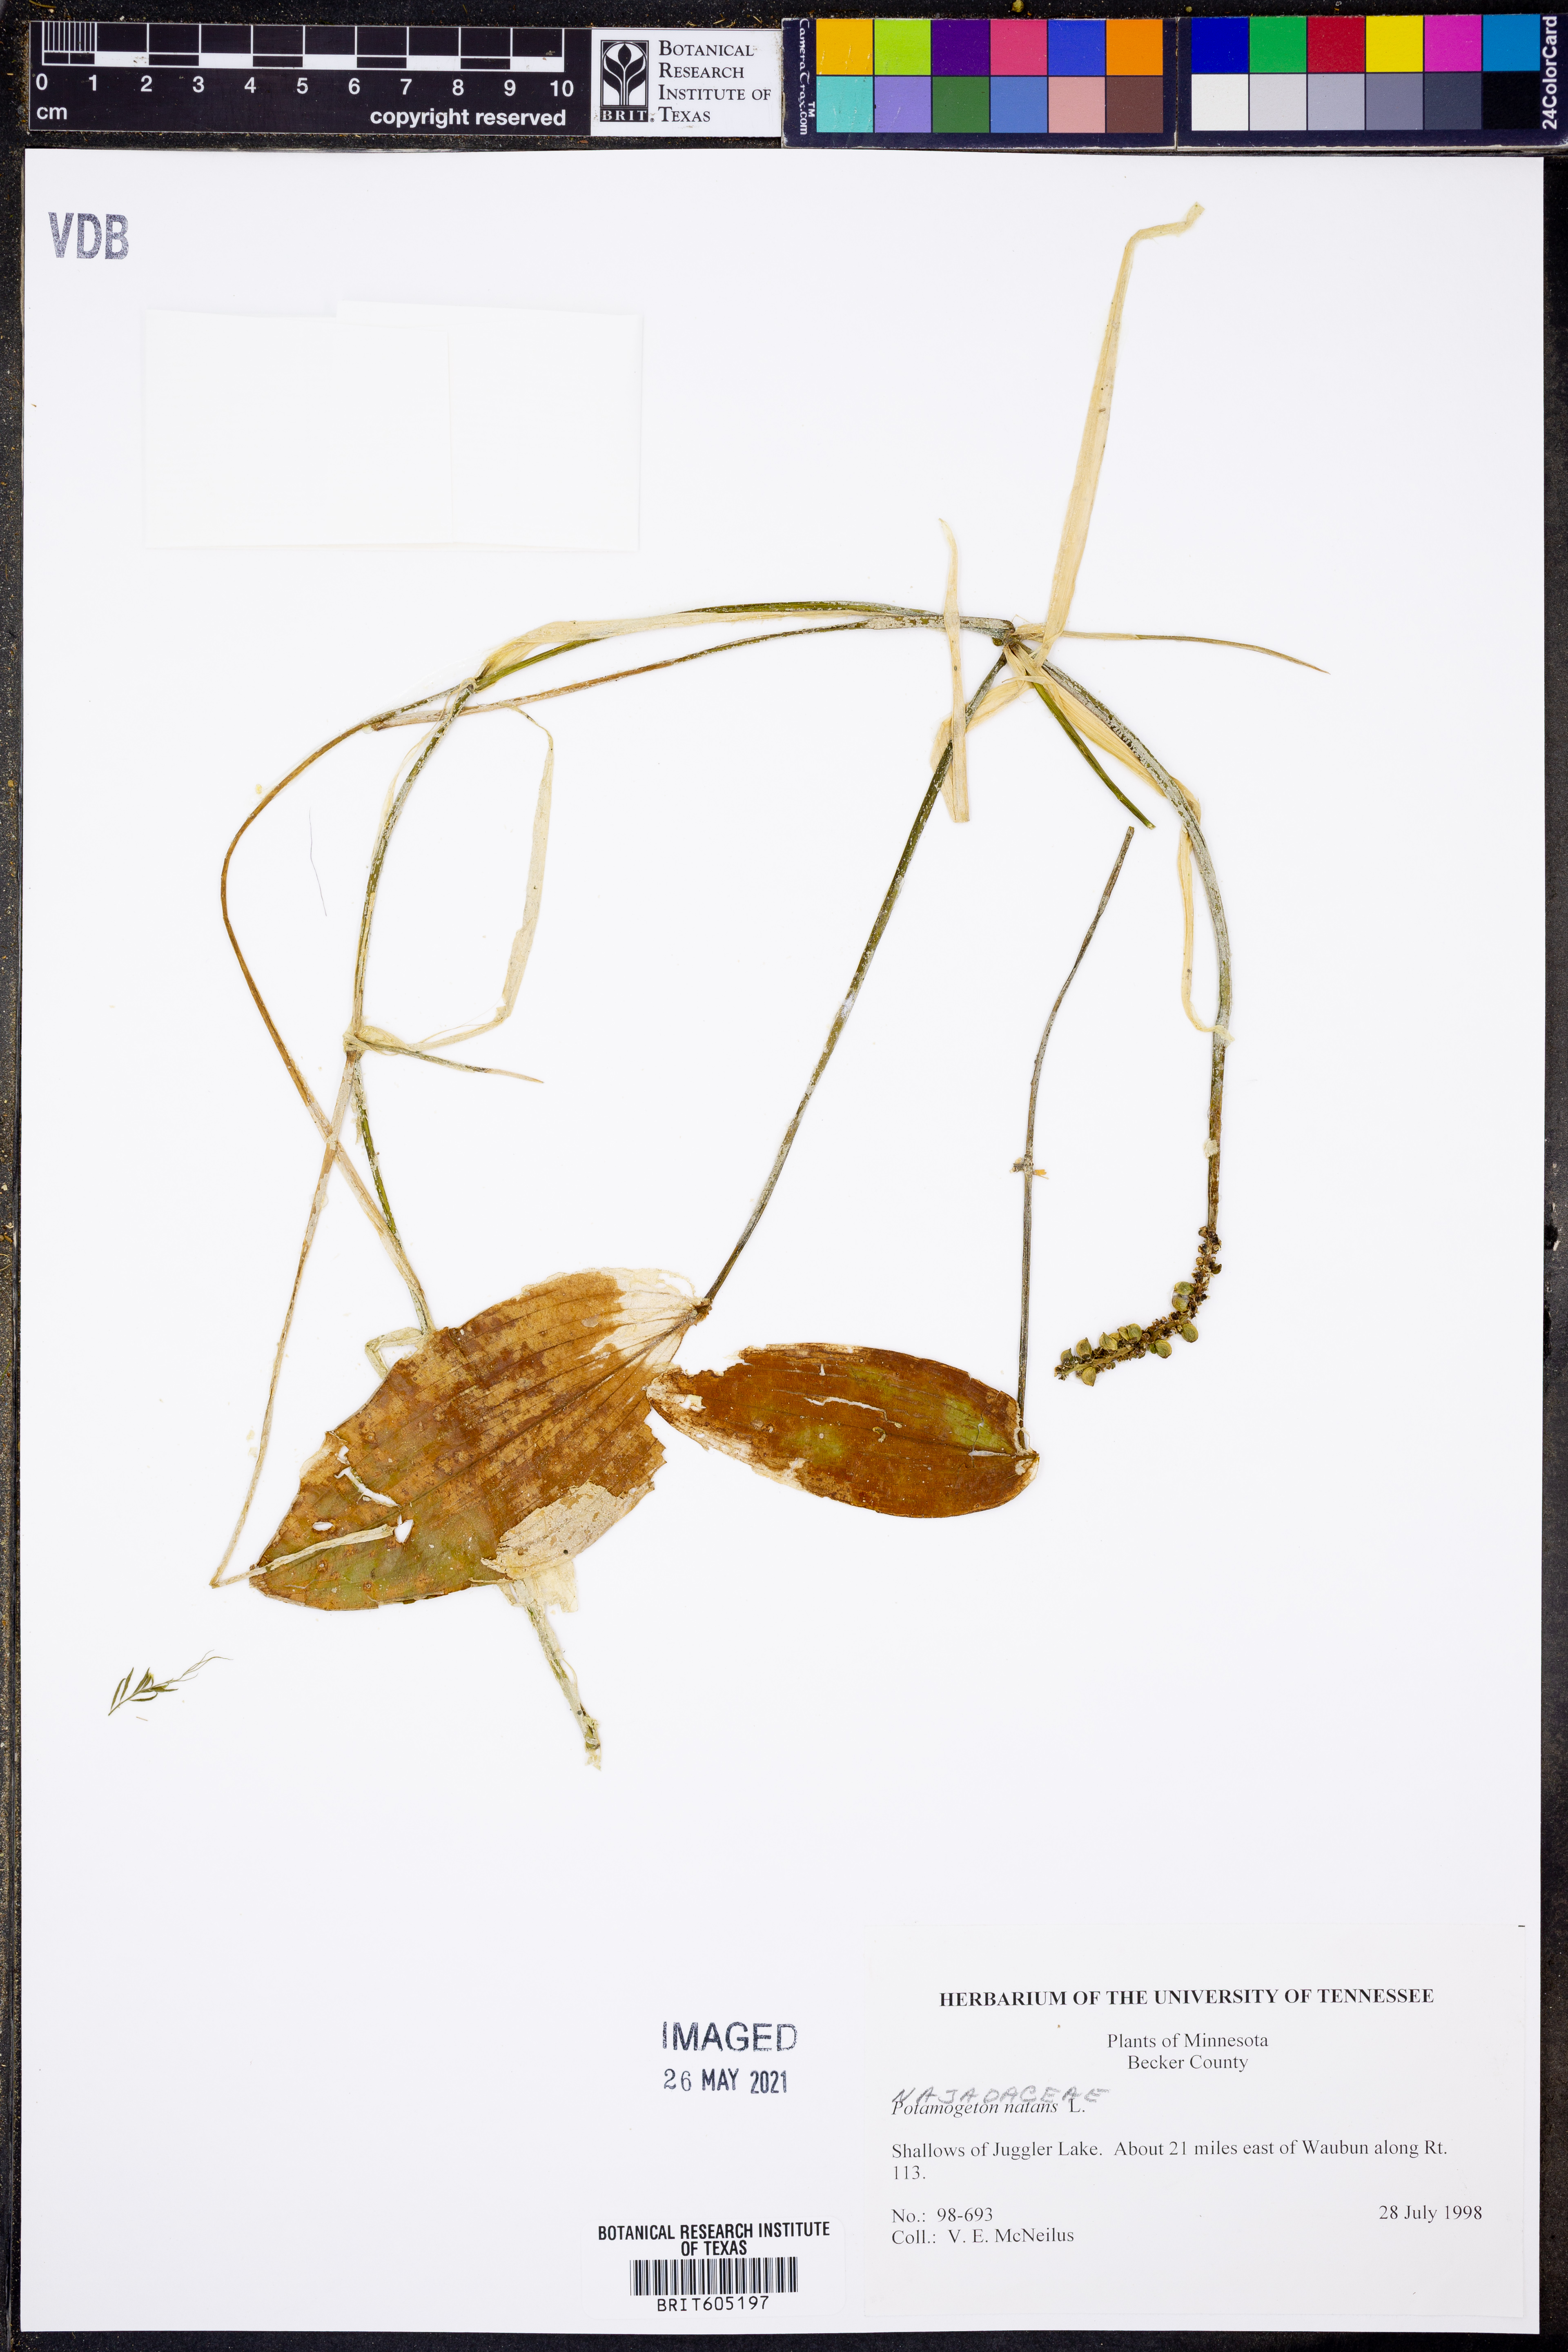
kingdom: Plantae
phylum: Tracheophyta
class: Liliopsida
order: Alismatales
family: Potamogetonaceae
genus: Potamogeton
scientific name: Potamogeton natans
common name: Broad-leaved pondweed
